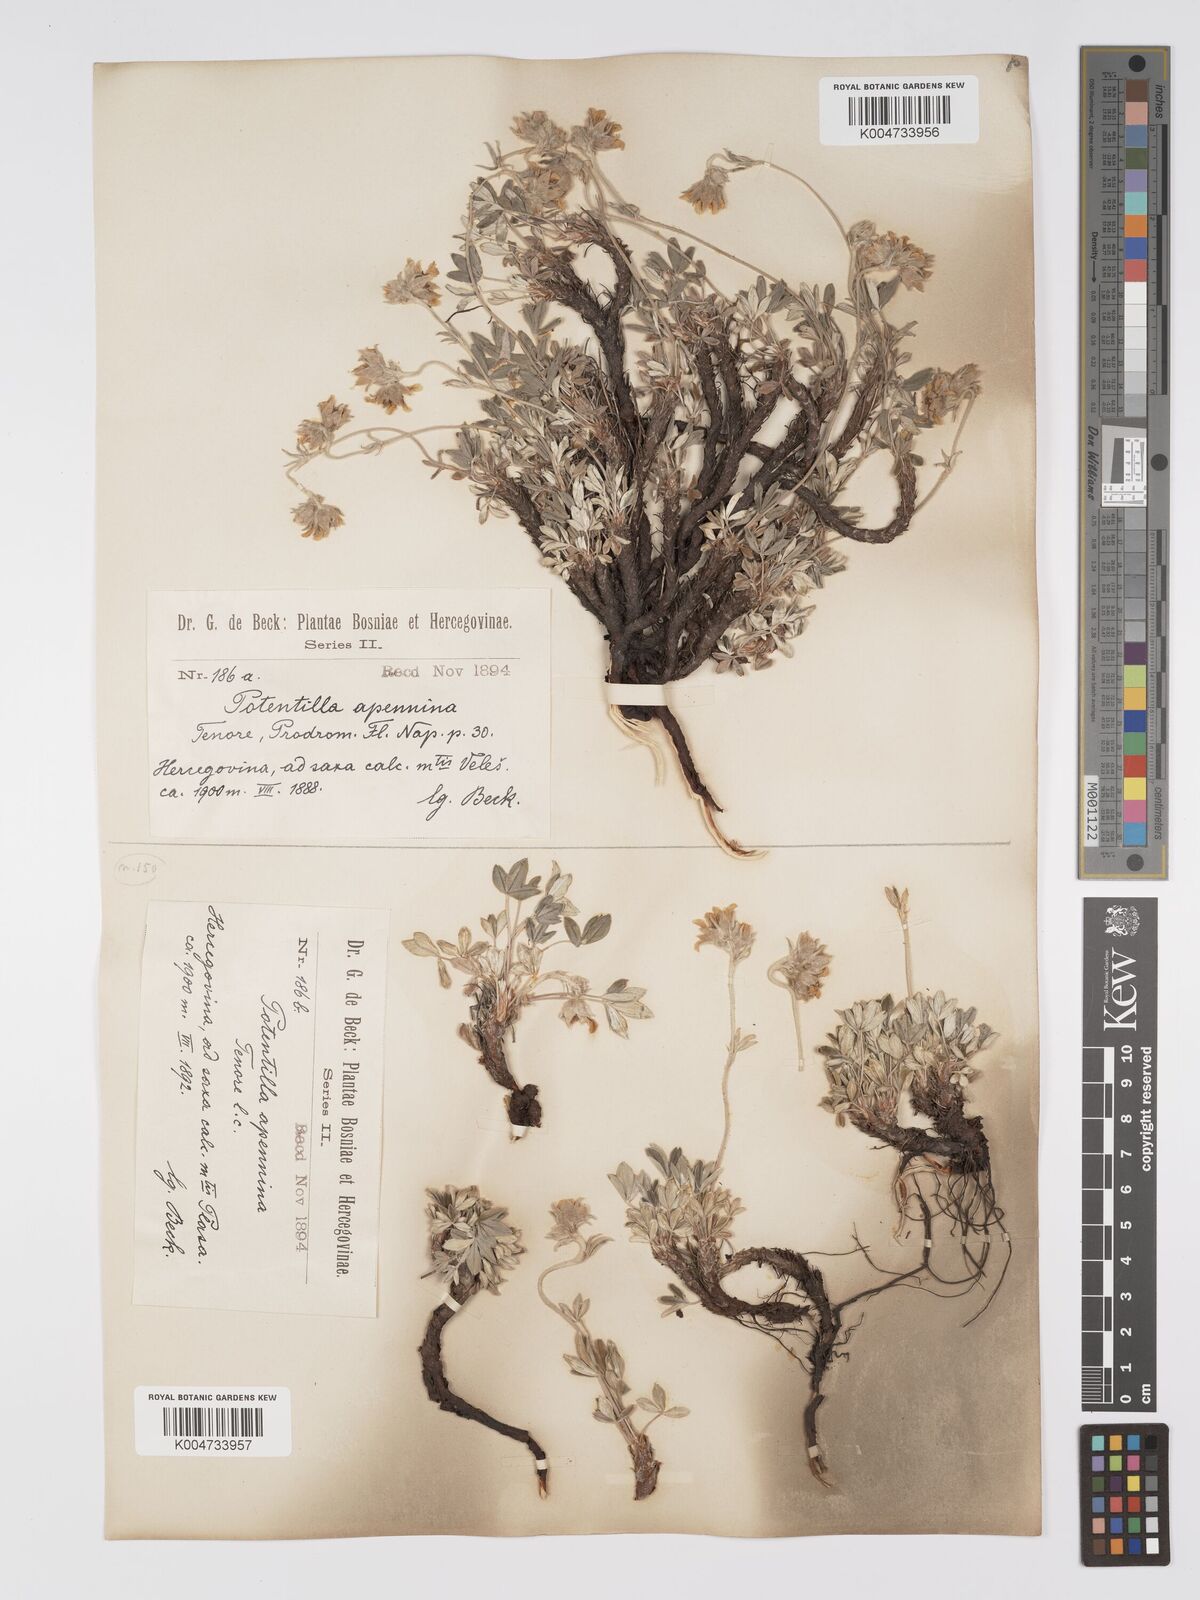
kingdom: Plantae
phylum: Tracheophyta
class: Magnoliopsida
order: Rosales
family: Rosaceae
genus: Potentilla
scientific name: Potentilla apennina
